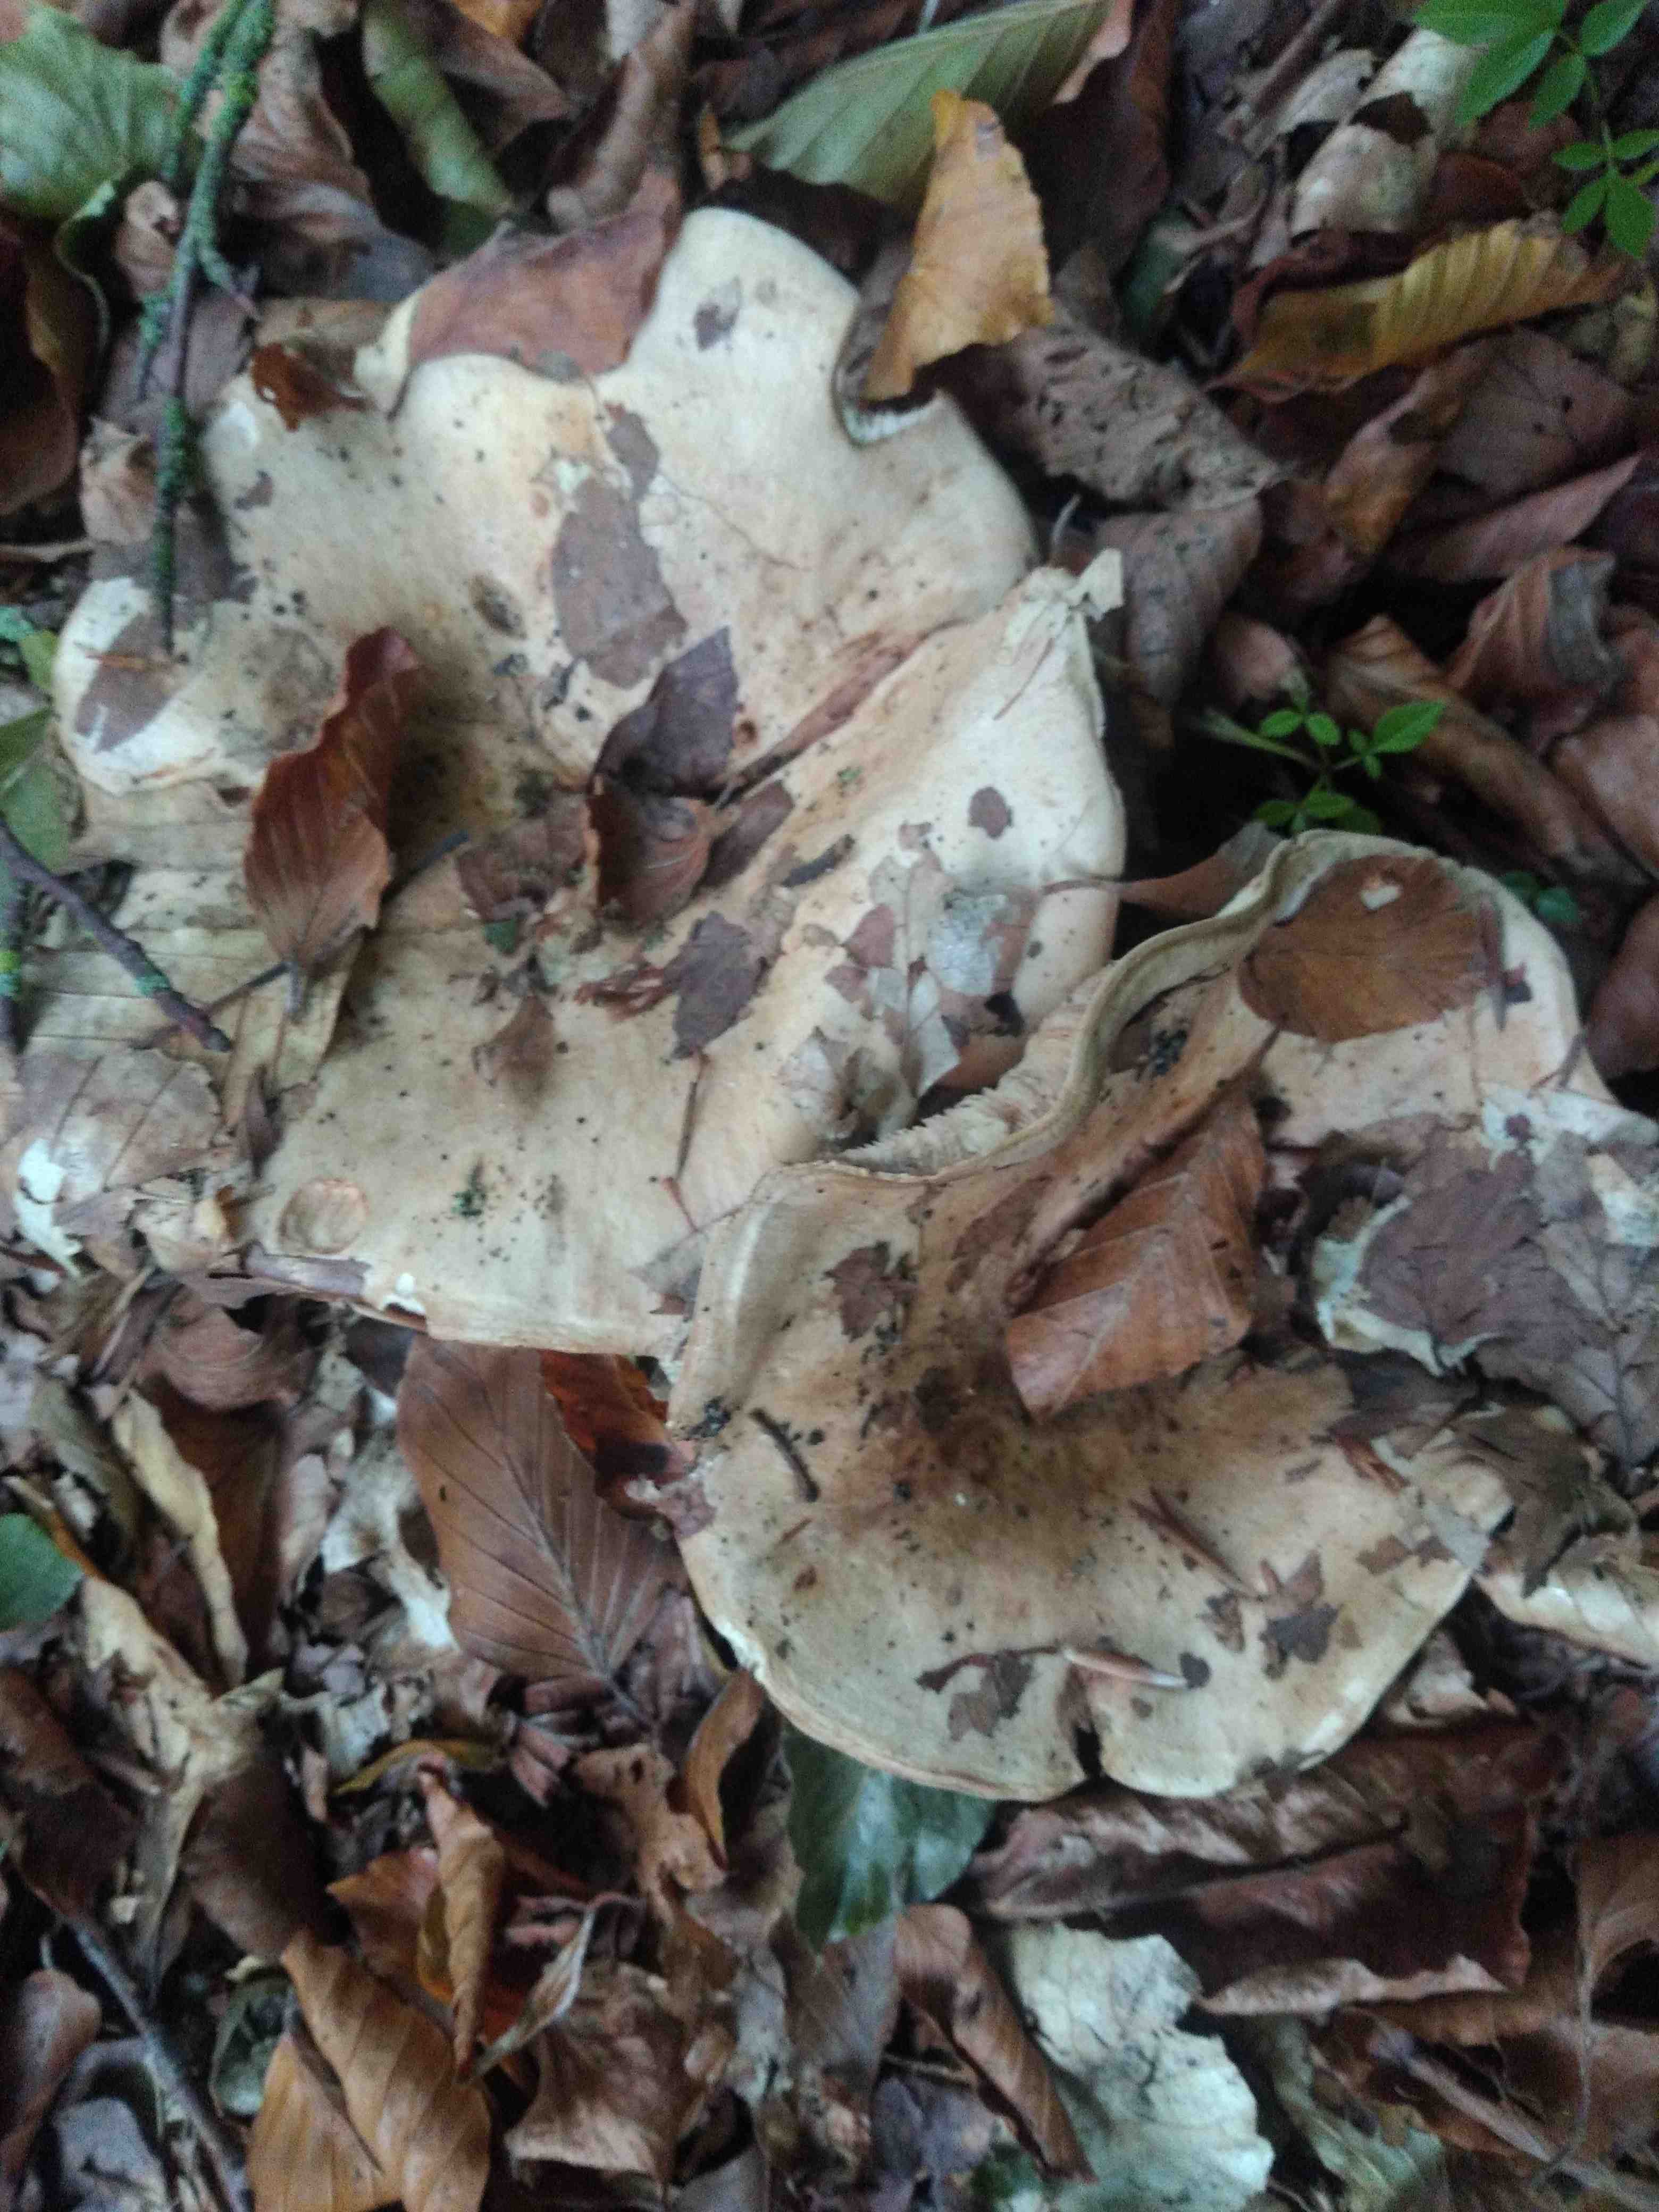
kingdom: Fungi
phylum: Basidiomycota
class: Agaricomycetes
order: Russulales
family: Russulaceae
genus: Lactarius
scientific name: Lactarius pallidus
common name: bleg mælkehat
